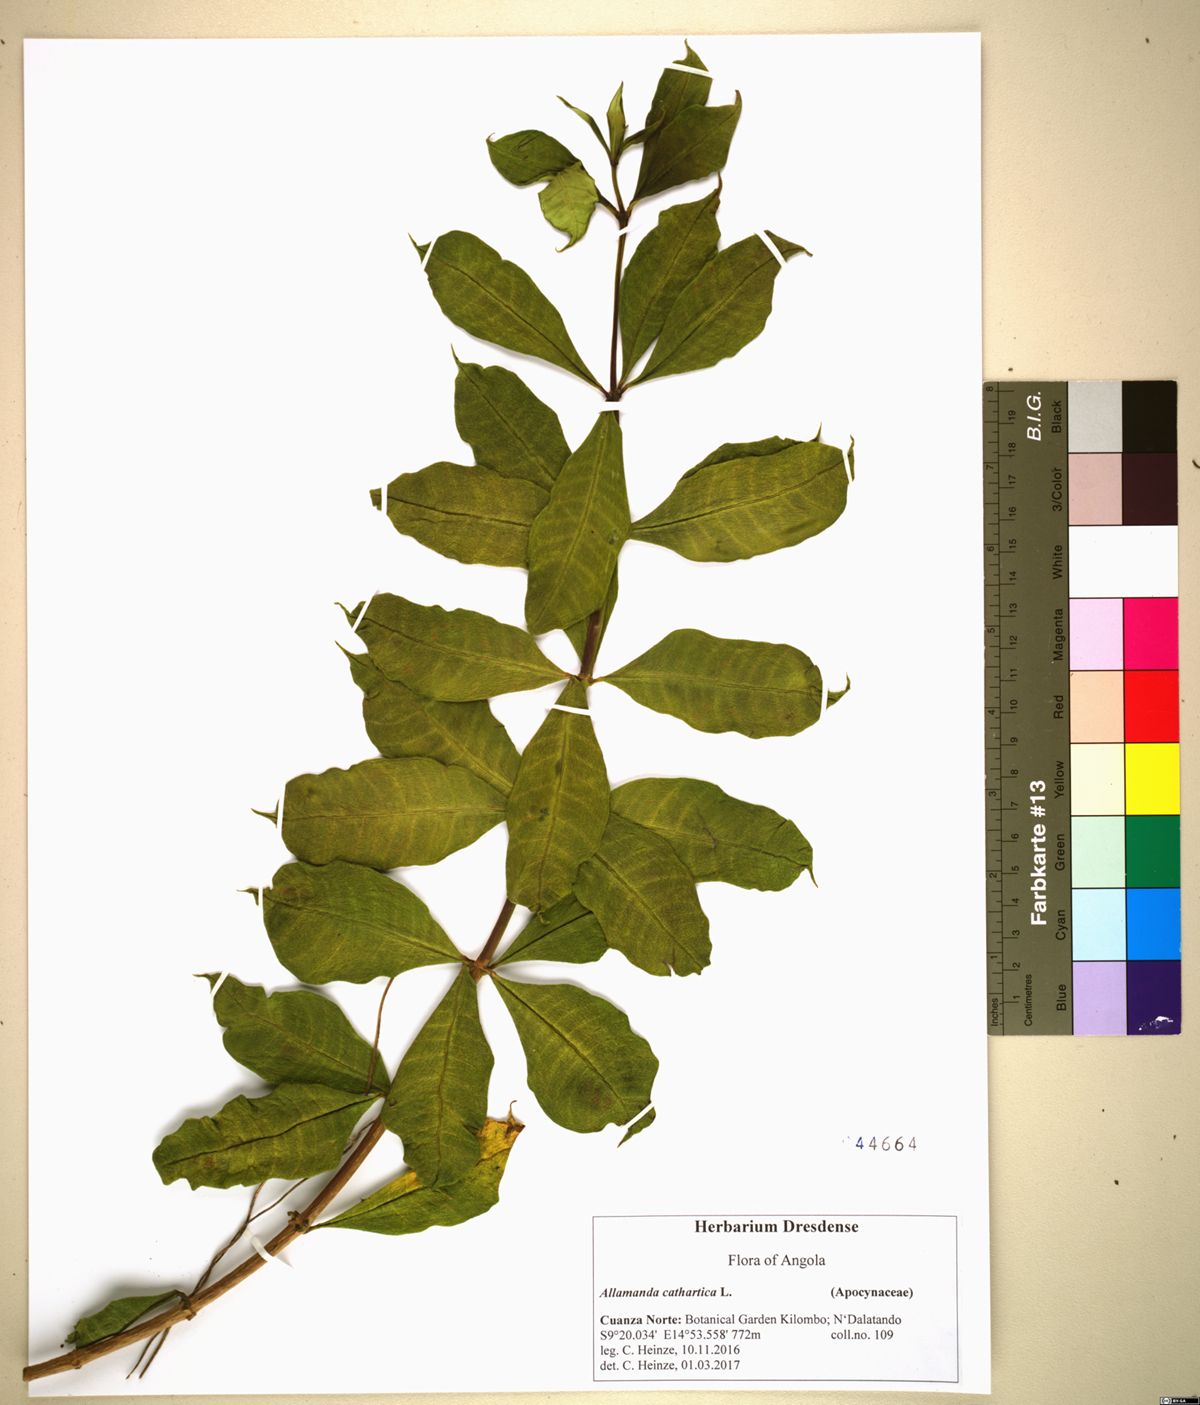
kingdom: Plantae
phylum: Tracheophyta
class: Magnoliopsida
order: Gentianales
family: Apocynaceae
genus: Allamanda
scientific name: Allamanda cathartica
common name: Golden trumpet
